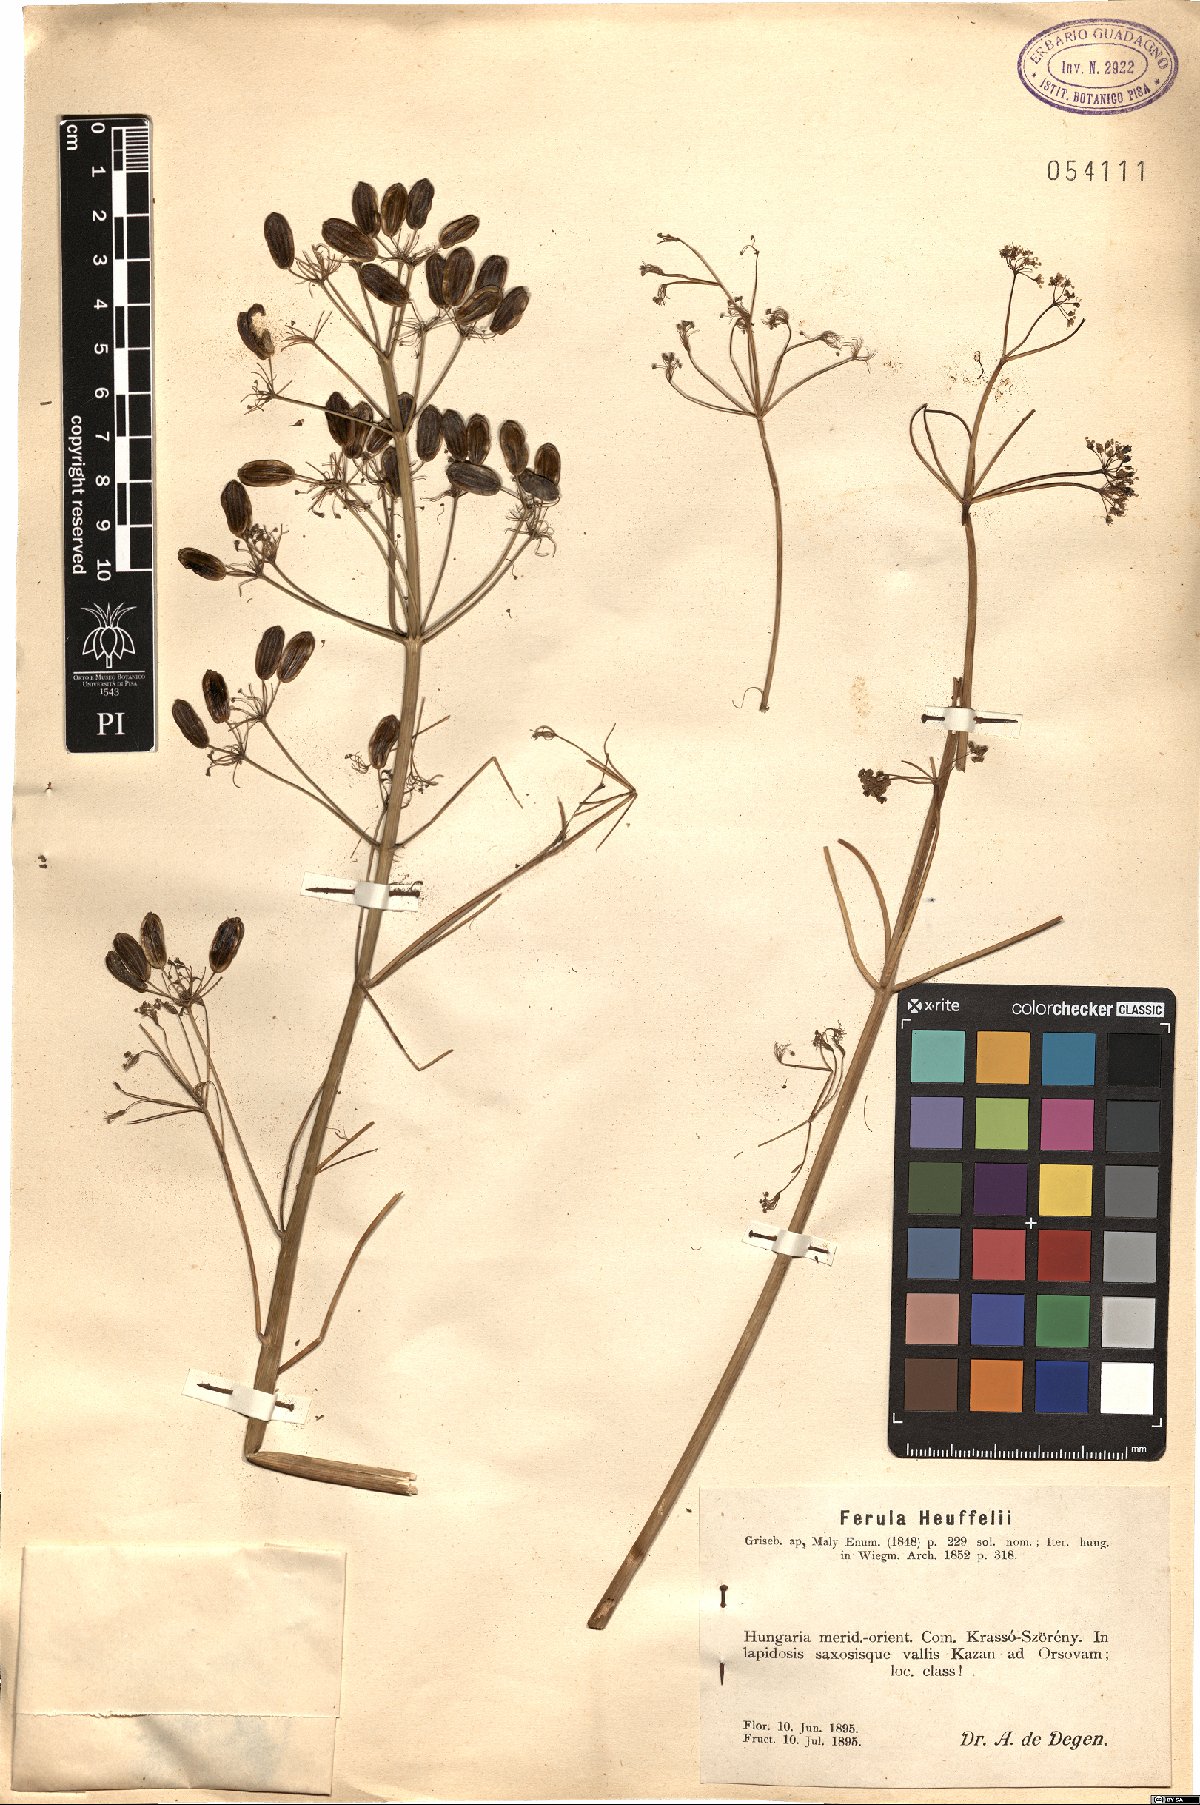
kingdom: Plantae
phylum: Tracheophyta
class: Magnoliopsida
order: Apiales
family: Apiaceae
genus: Ferula
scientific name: Ferula heuffelii
